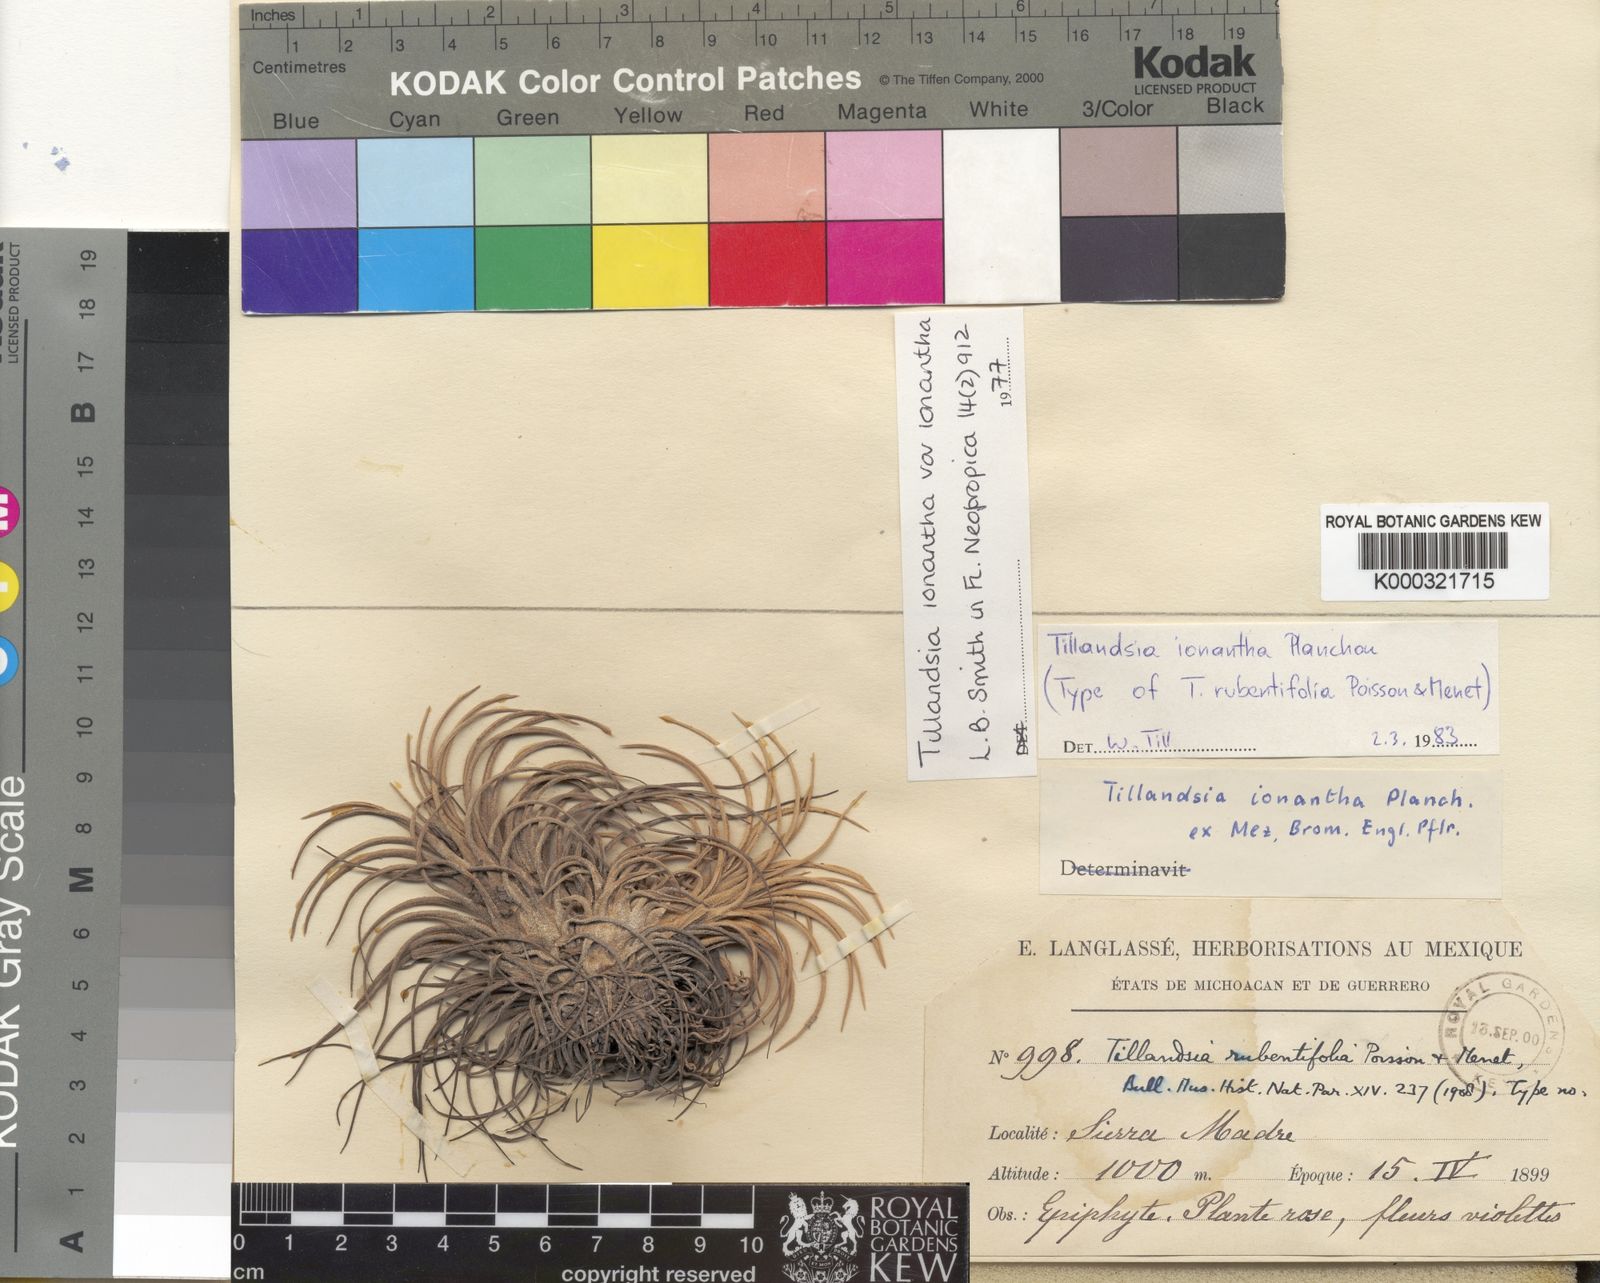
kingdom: Plantae
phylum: Tracheophyta
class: Liliopsida
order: Poales
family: Bromeliaceae
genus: Tillandsia
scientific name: Tillandsia ionantha
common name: Sky plant
